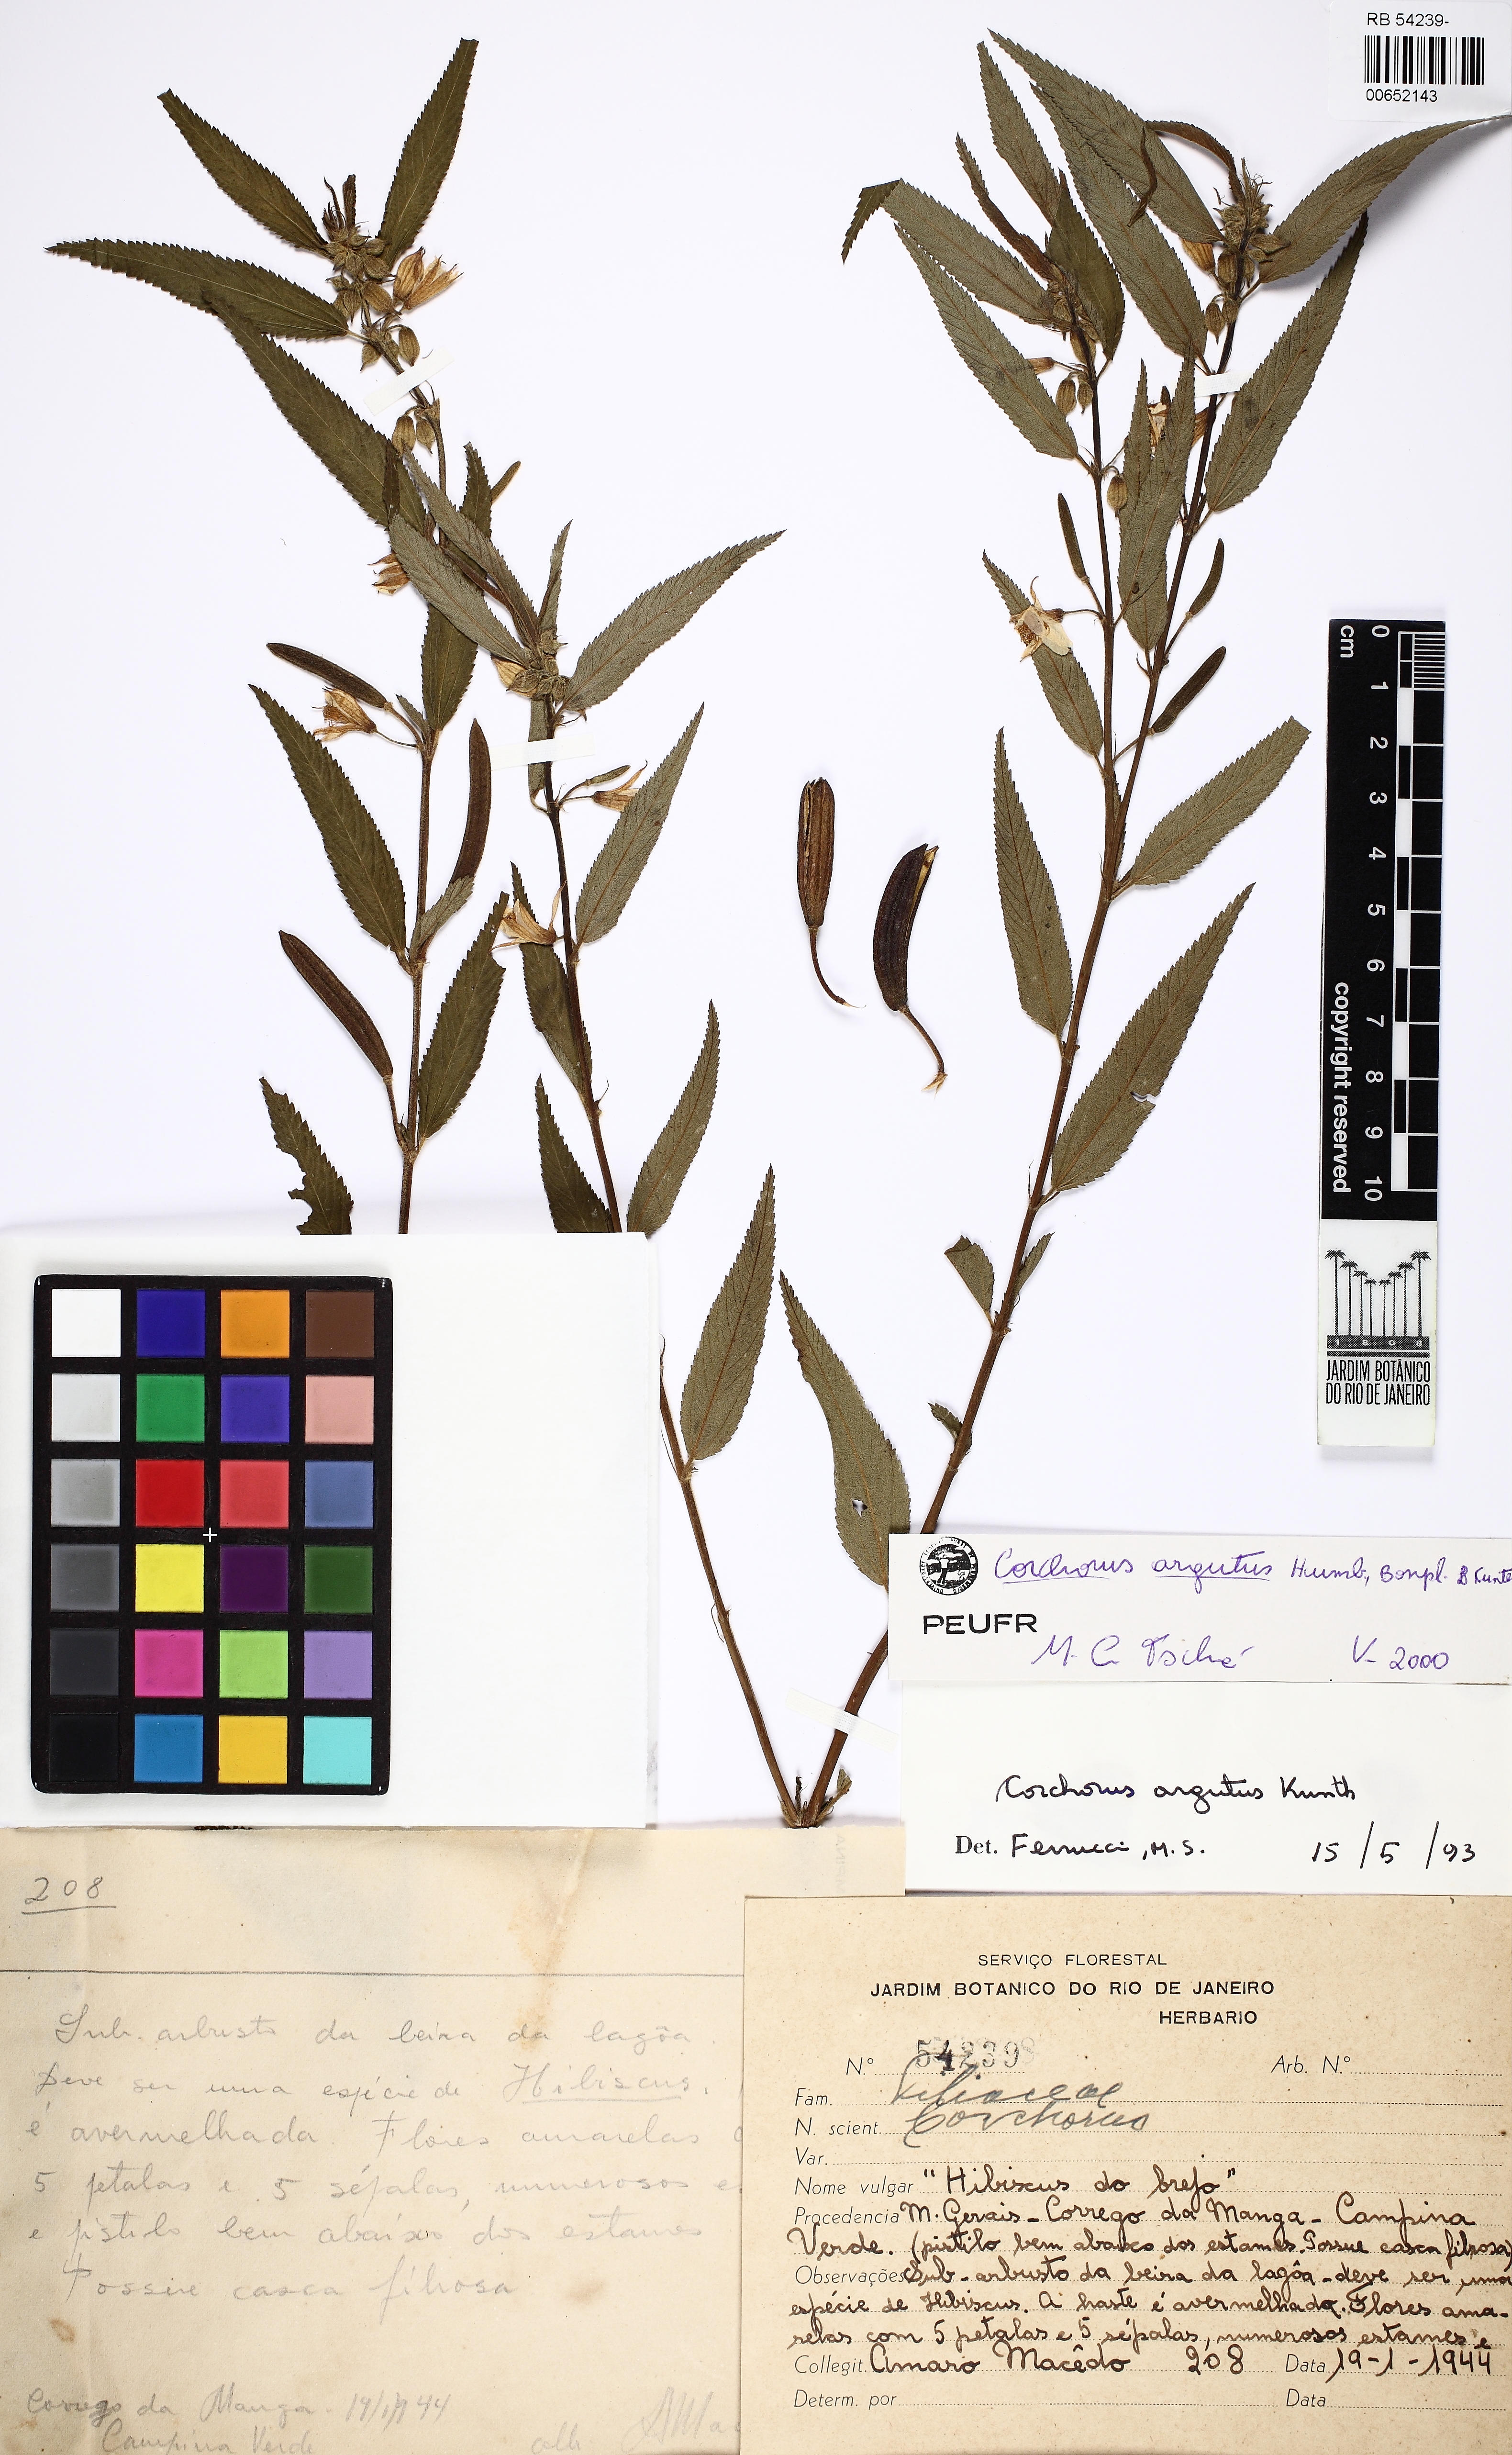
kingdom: Plantae
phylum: Tracheophyta
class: Magnoliopsida
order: Malvales
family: Malvaceae
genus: Corchorus
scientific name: Corchorus argutus
